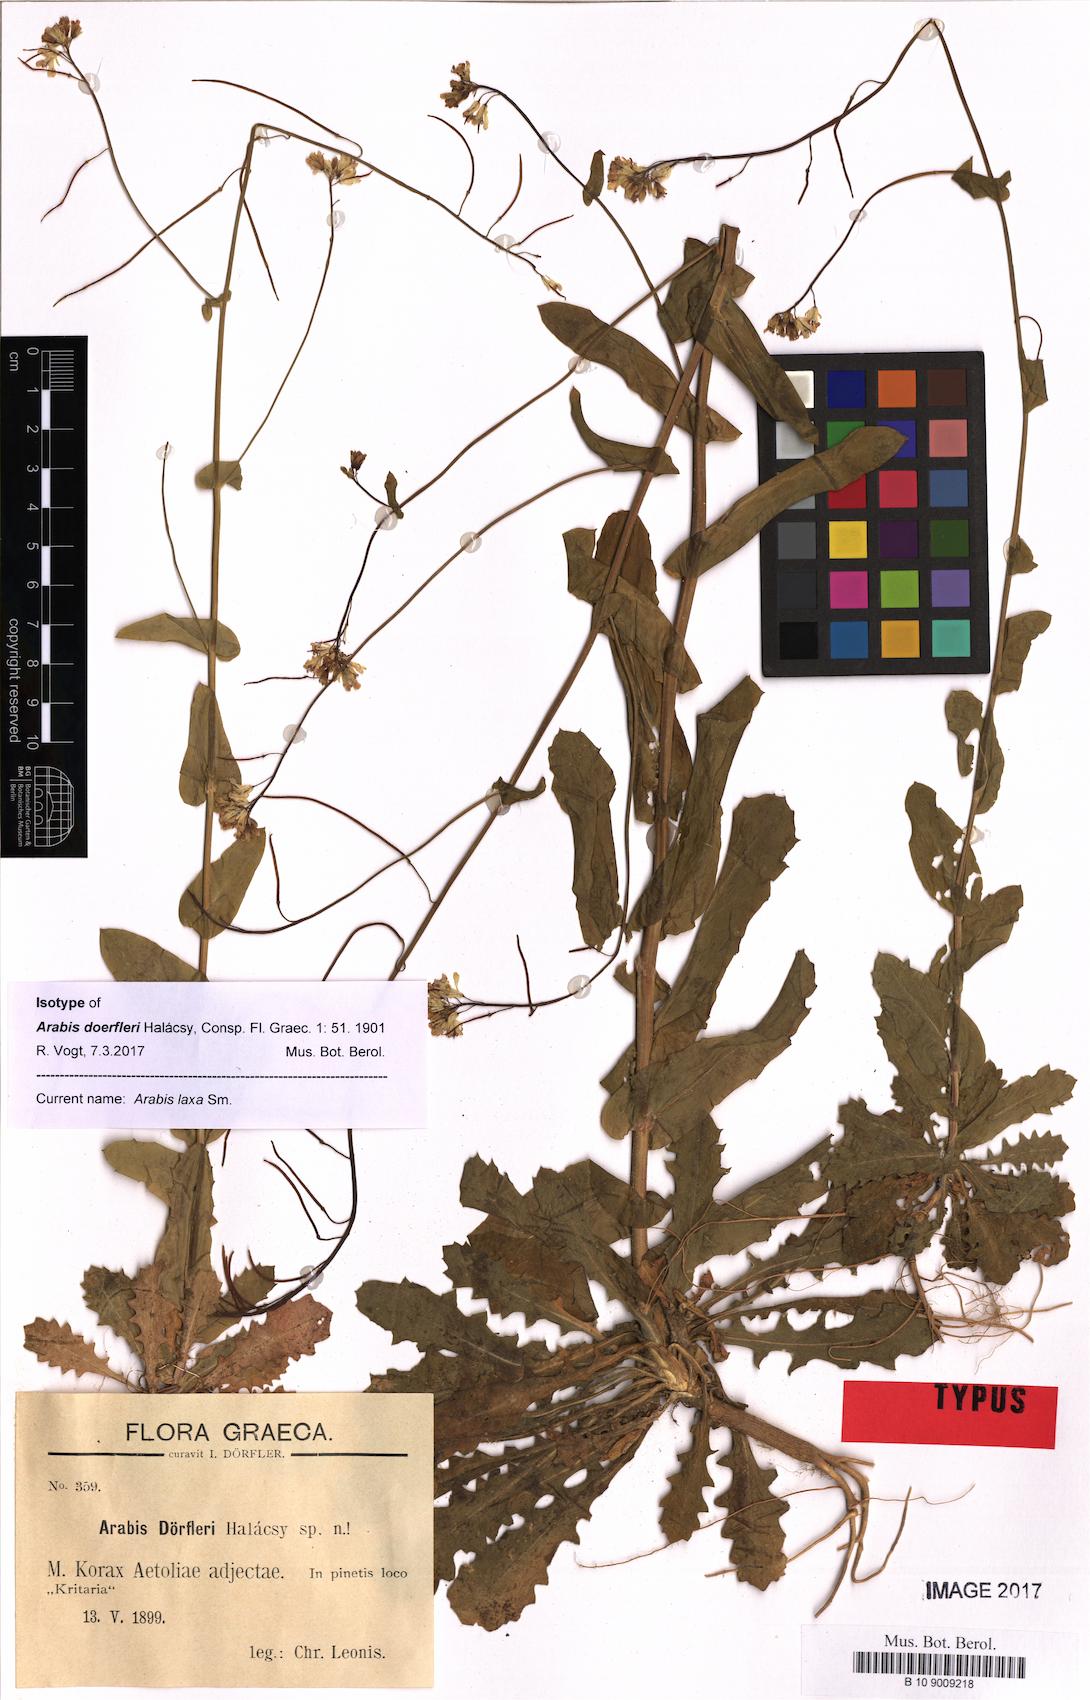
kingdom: Plantae
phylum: Tracheophyta
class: Magnoliopsida
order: Brassicales
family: Brassicaceae
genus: Turritis
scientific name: Turritis laxa
